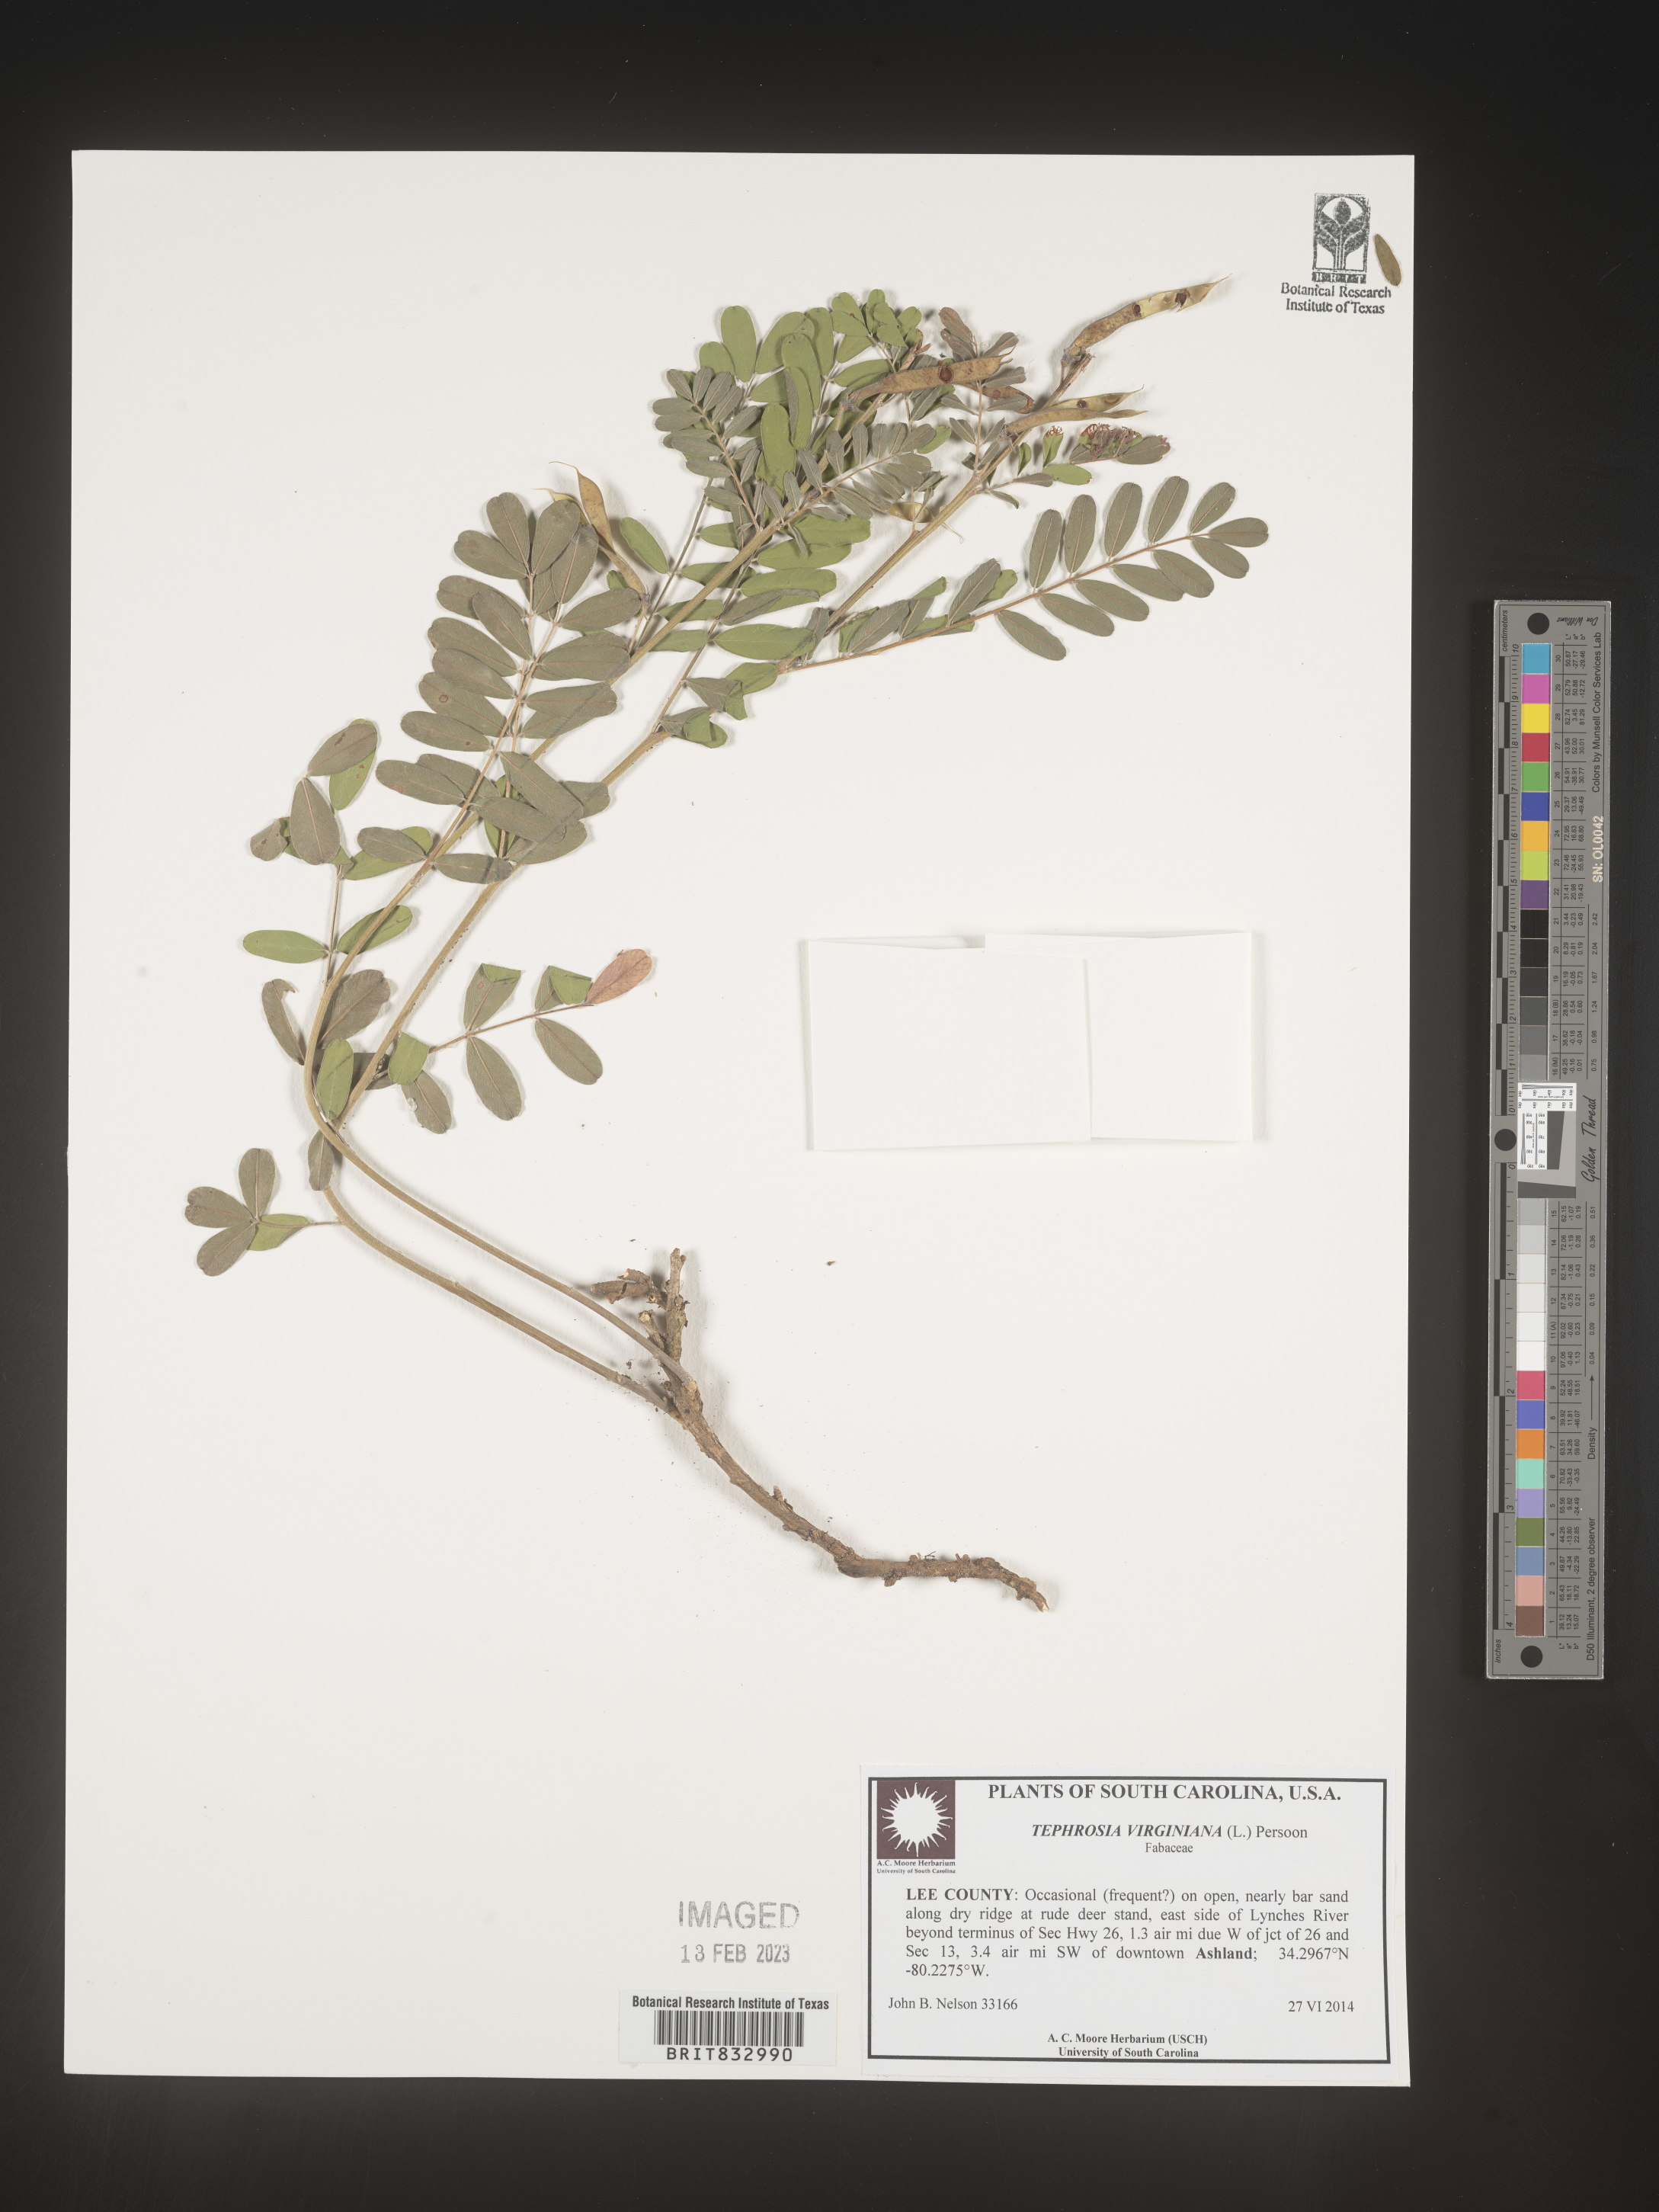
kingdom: Plantae
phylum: Tracheophyta
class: Magnoliopsida
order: Fabales
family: Fabaceae
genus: Tephrosia
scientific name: Tephrosia virginiana
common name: Rabbit-pea
